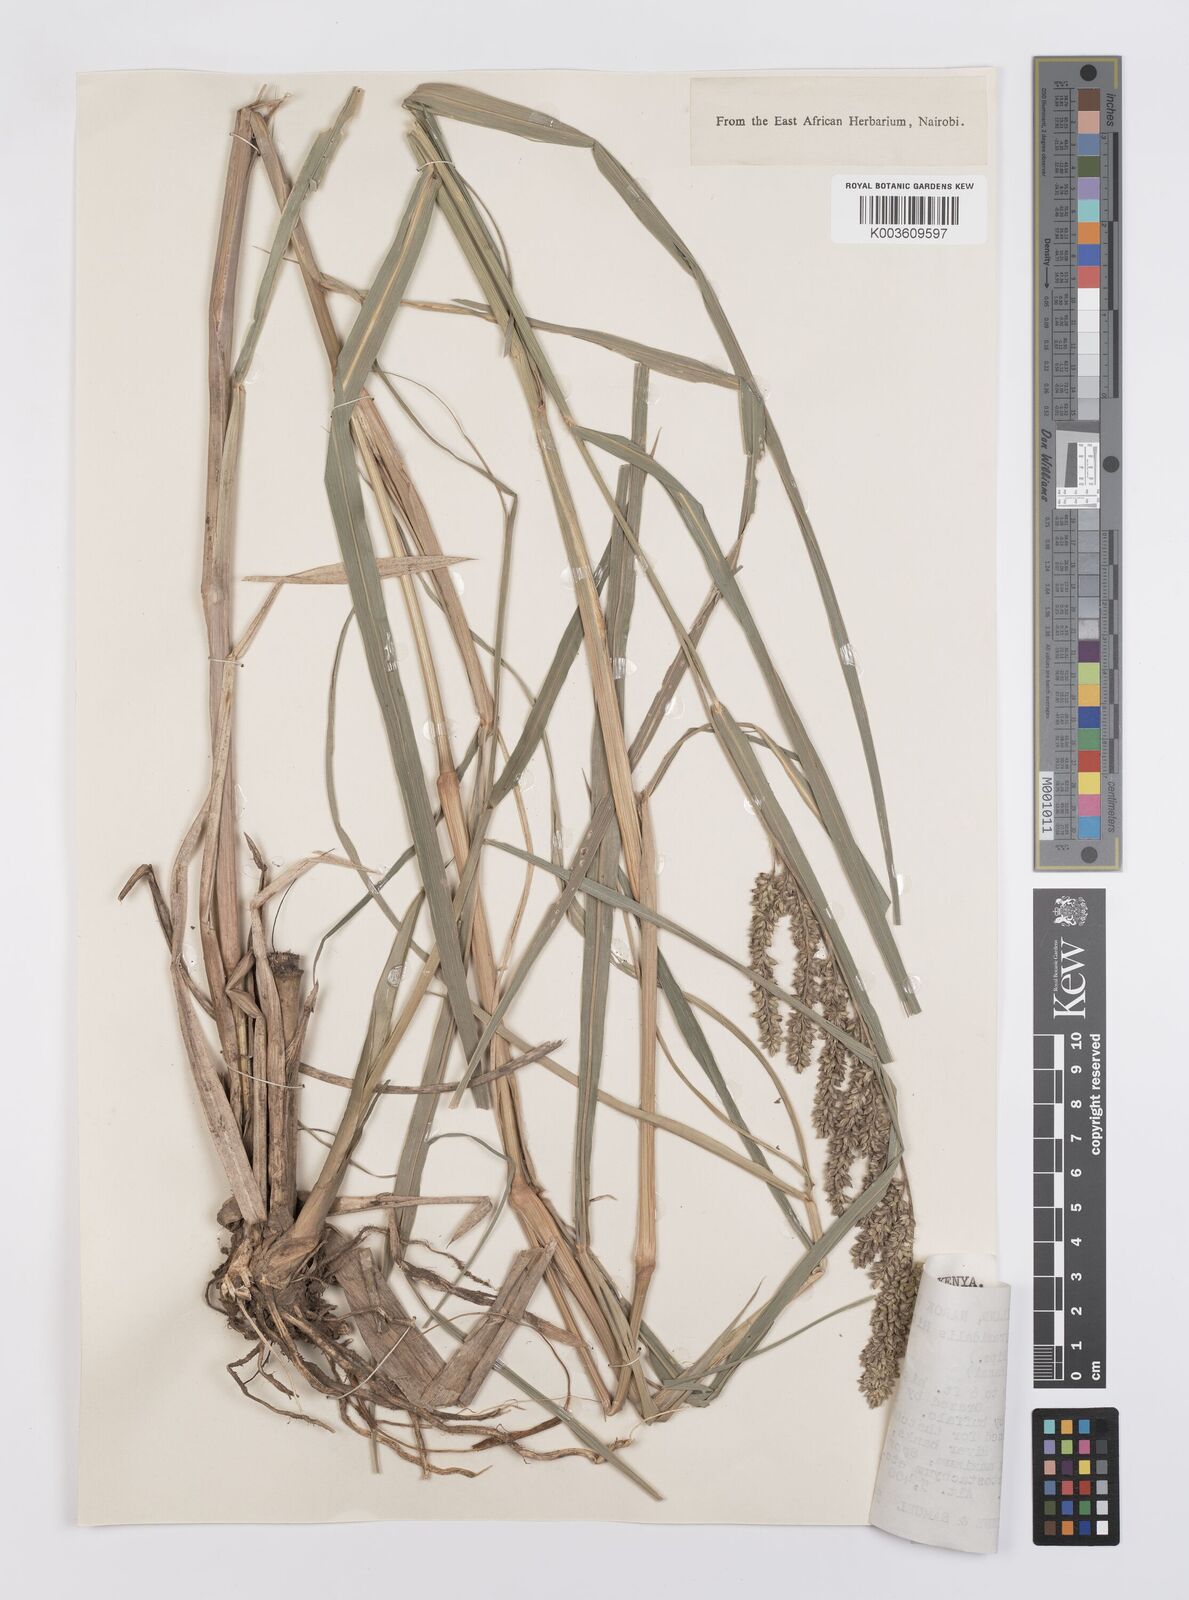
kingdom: Plantae
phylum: Tracheophyta
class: Liliopsida
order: Poales
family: Poaceae
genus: Echinochloa
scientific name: Echinochloa pyramidalis
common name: Antelope grass
